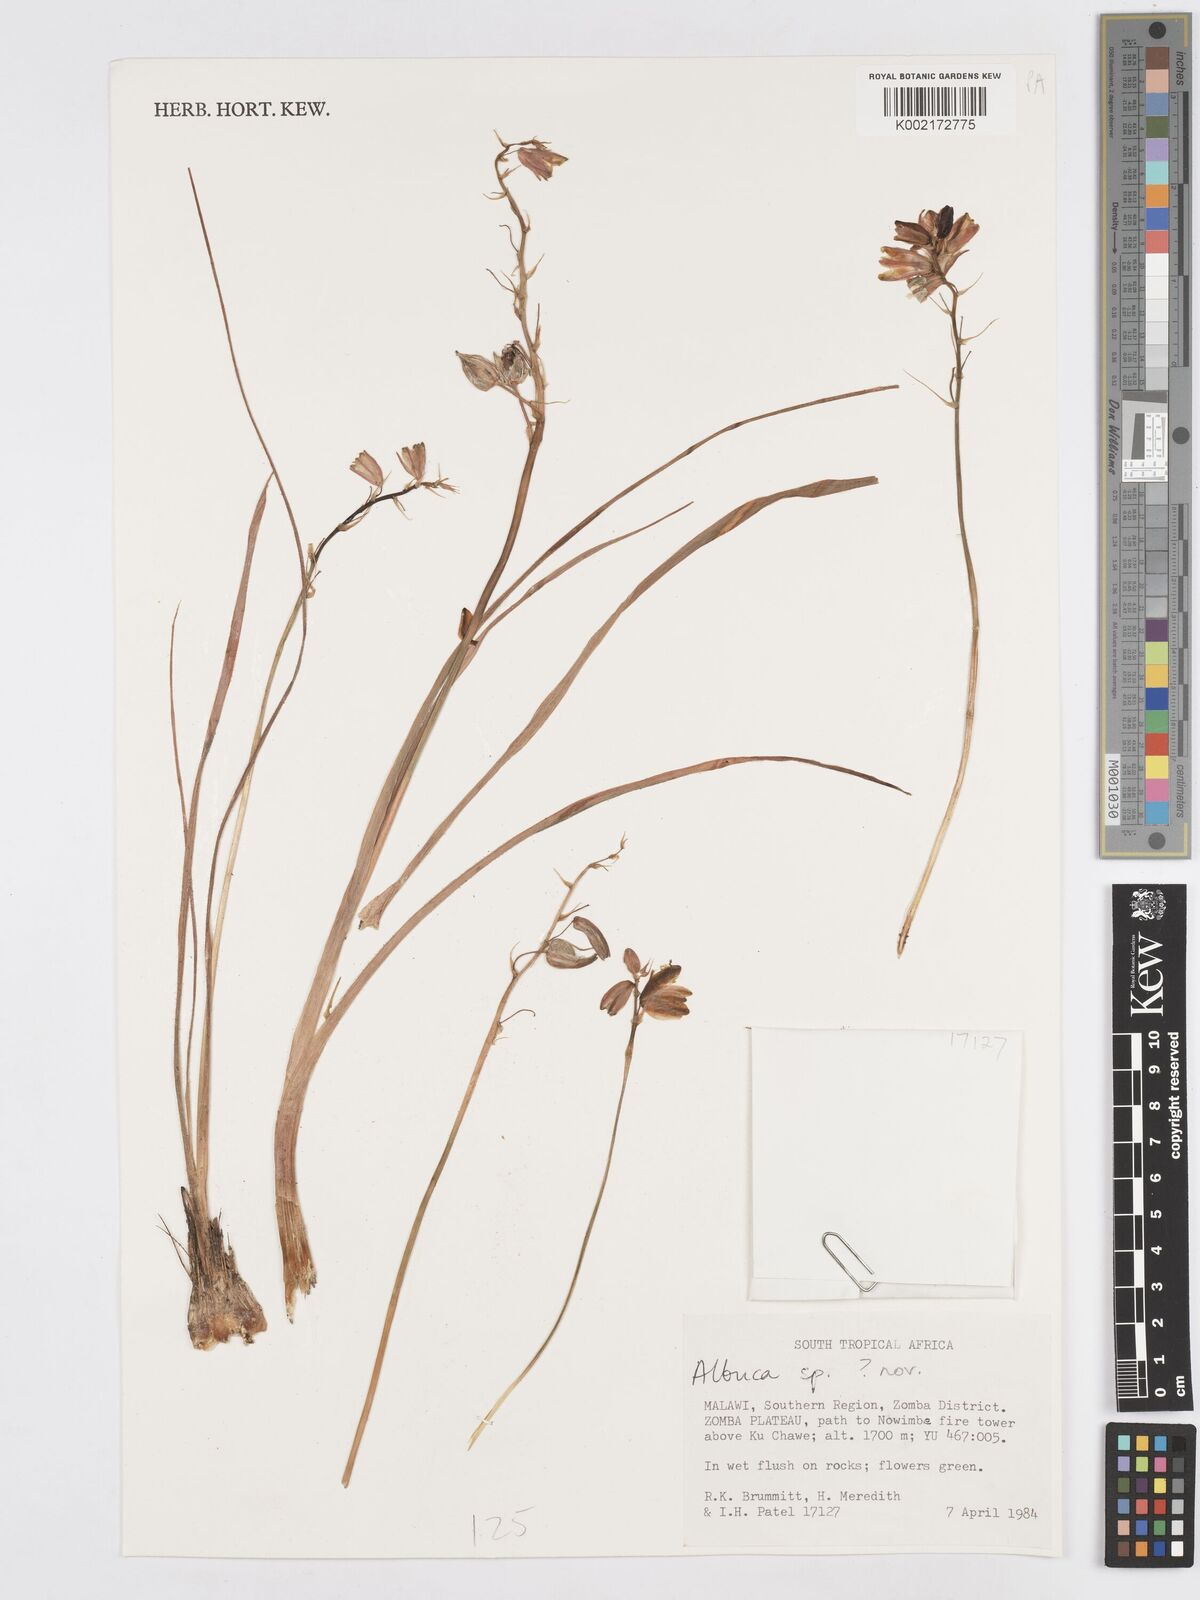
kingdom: Plantae
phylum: Tracheophyta
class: Liliopsida
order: Asparagales
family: Asparagaceae
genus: Albuca
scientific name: Albuca
